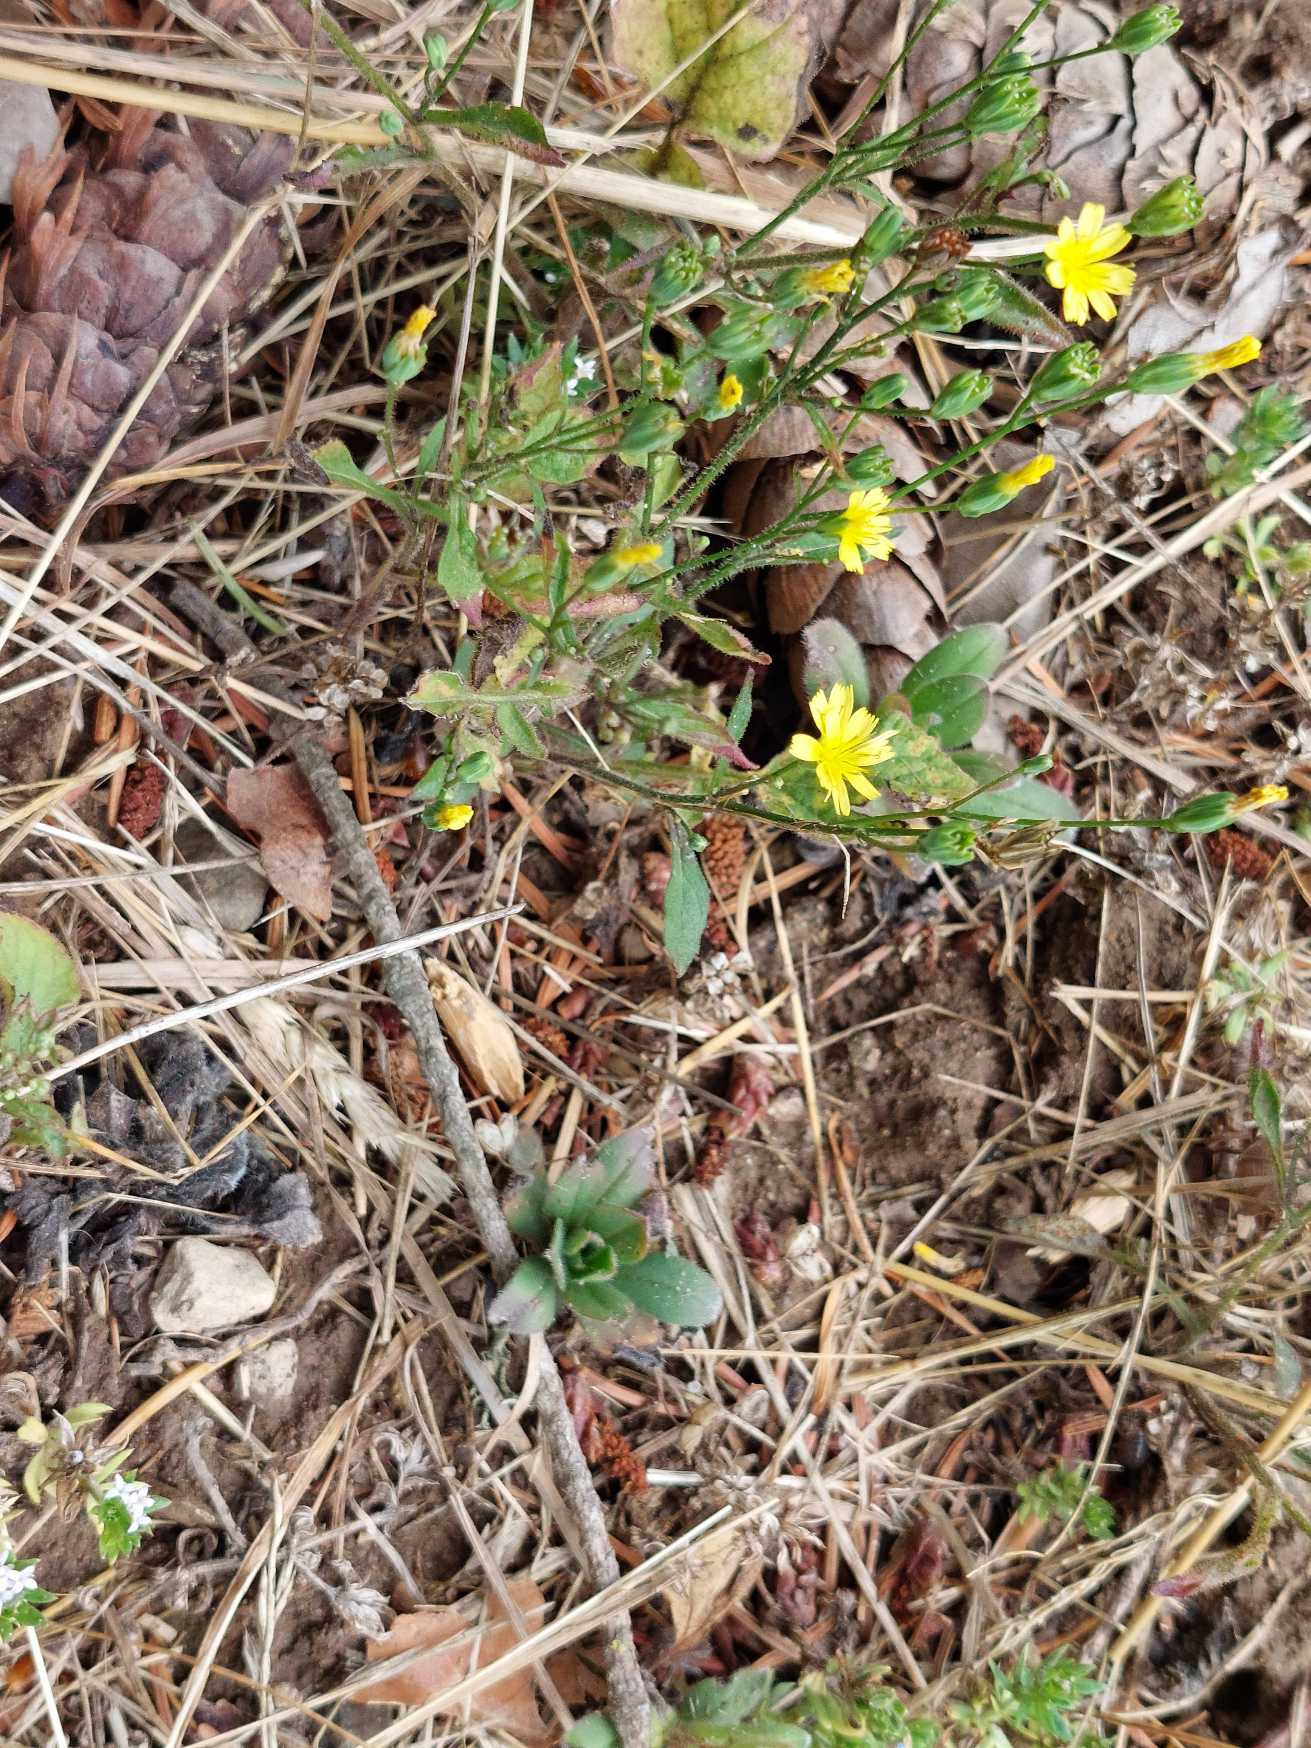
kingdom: Plantae
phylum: Tracheophyta
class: Magnoliopsida
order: Asterales
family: Asteraceae
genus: Lapsana
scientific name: Lapsana communis
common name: Haremad
